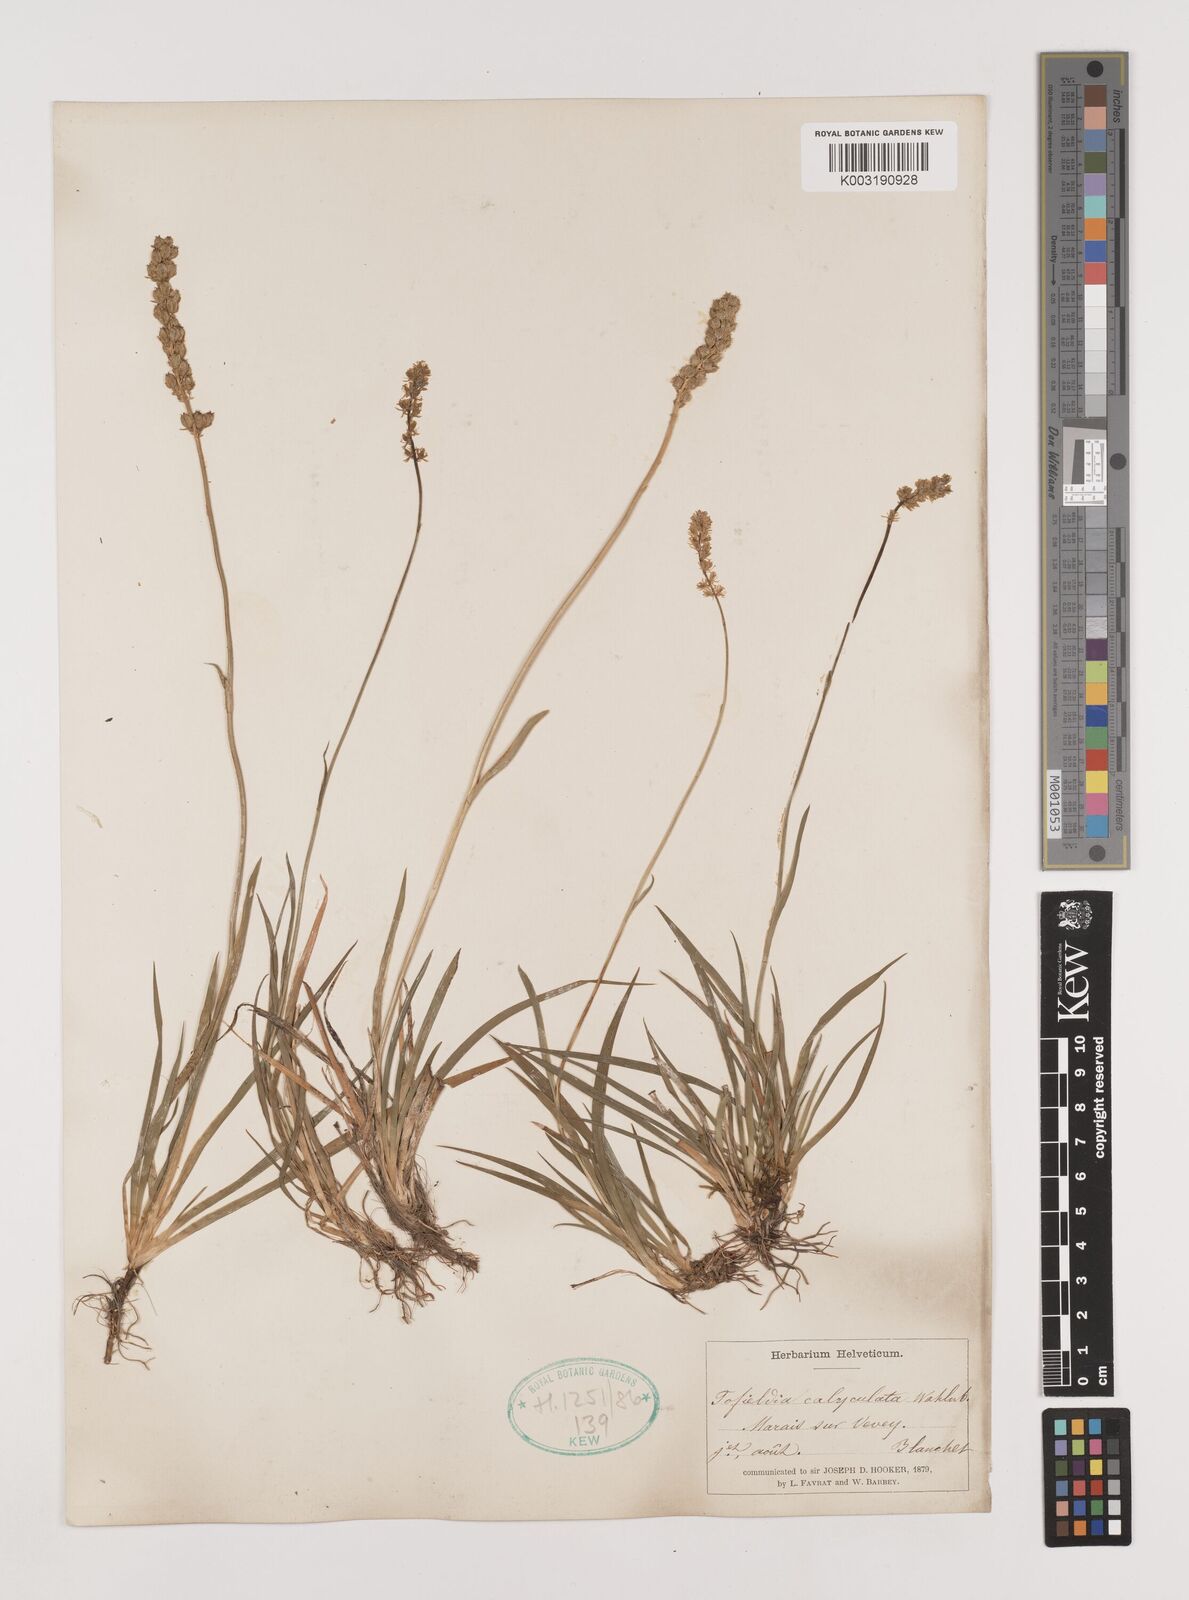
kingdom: Plantae
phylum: Tracheophyta
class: Liliopsida
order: Alismatales
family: Tofieldiaceae
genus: Tofieldia
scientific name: Tofieldia calyculata
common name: German-asphodel
